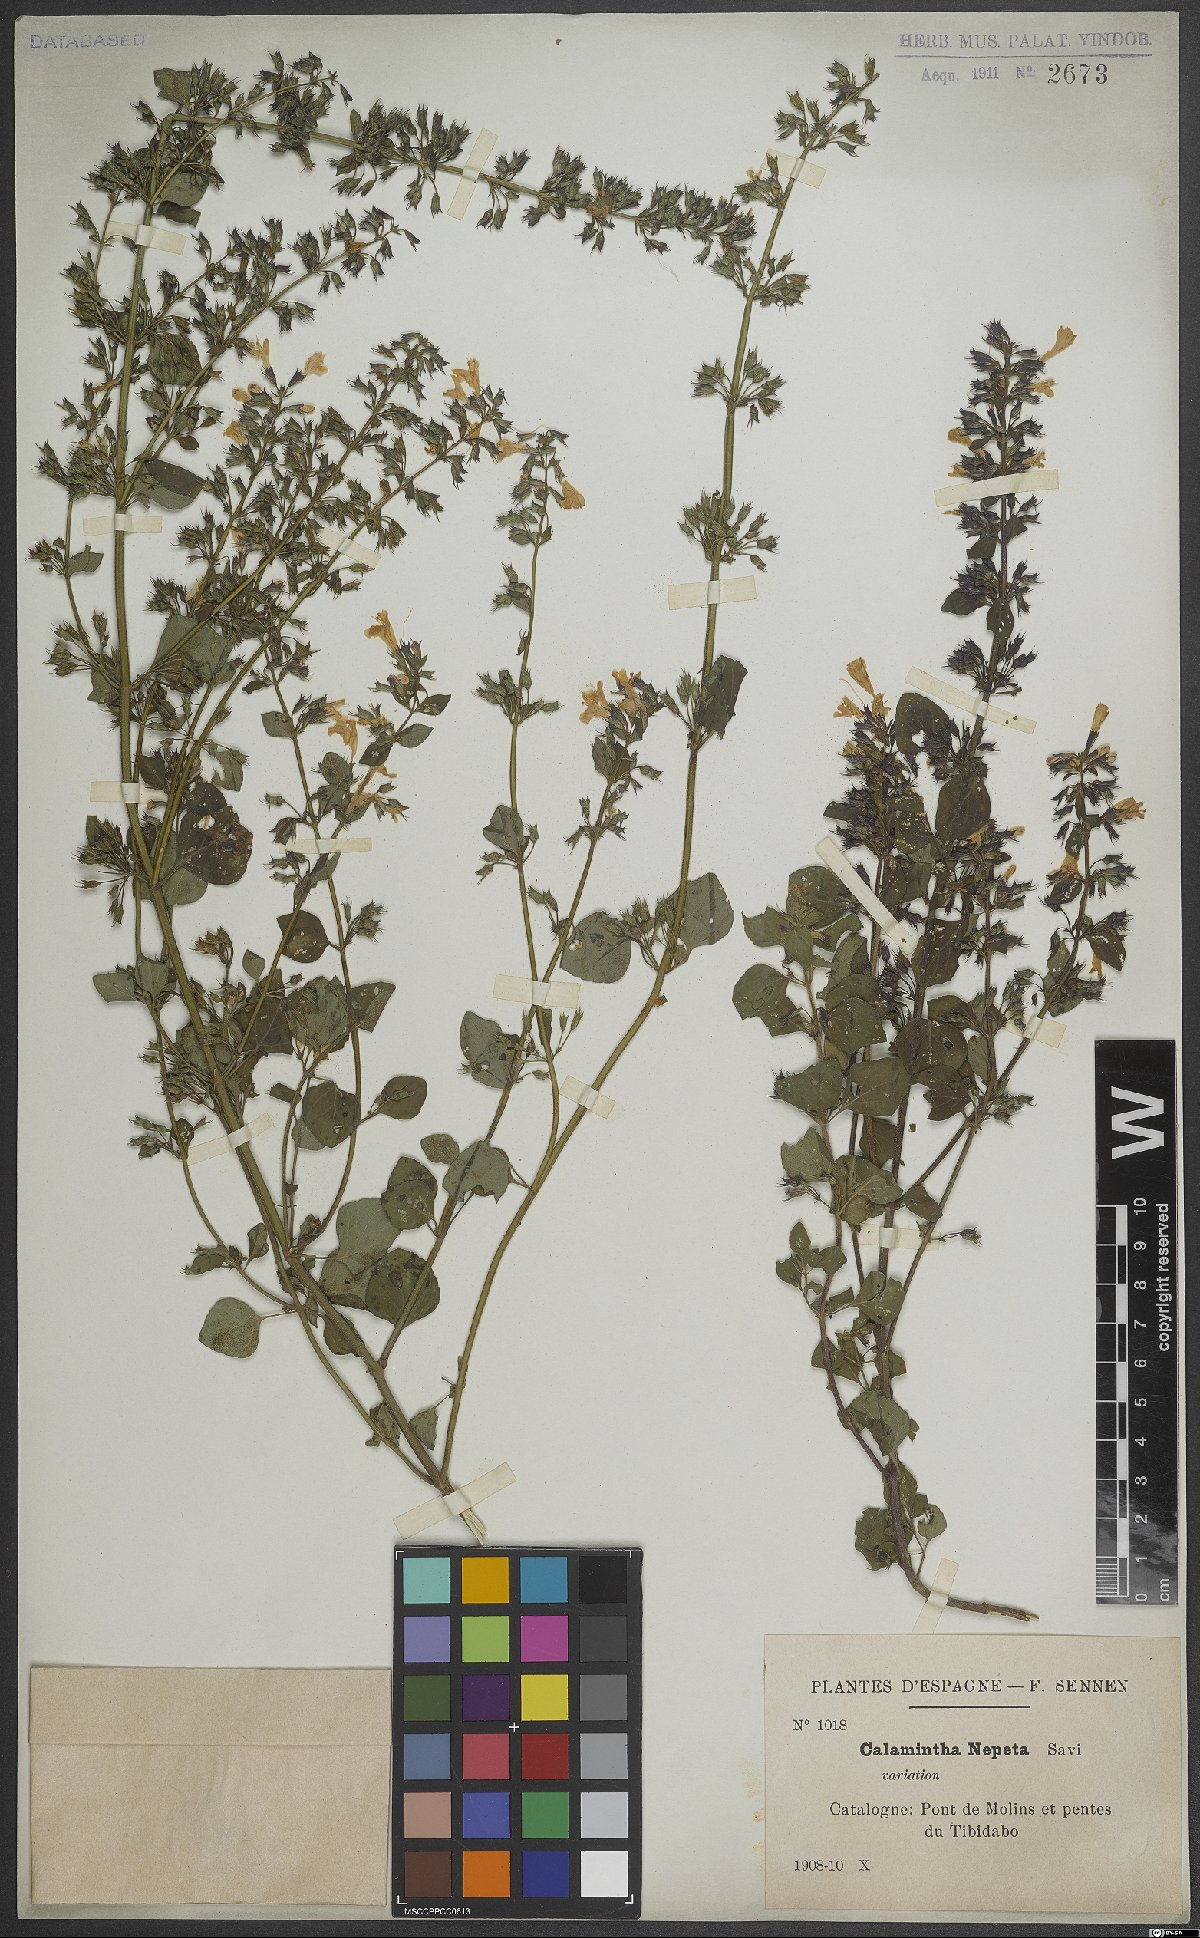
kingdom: Plantae
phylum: Tracheophyta
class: Magnoliopsida
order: Lamiales
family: Lamiaceae
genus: Clinopodium
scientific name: Clinopodium nepeta
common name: Lesser calamint
